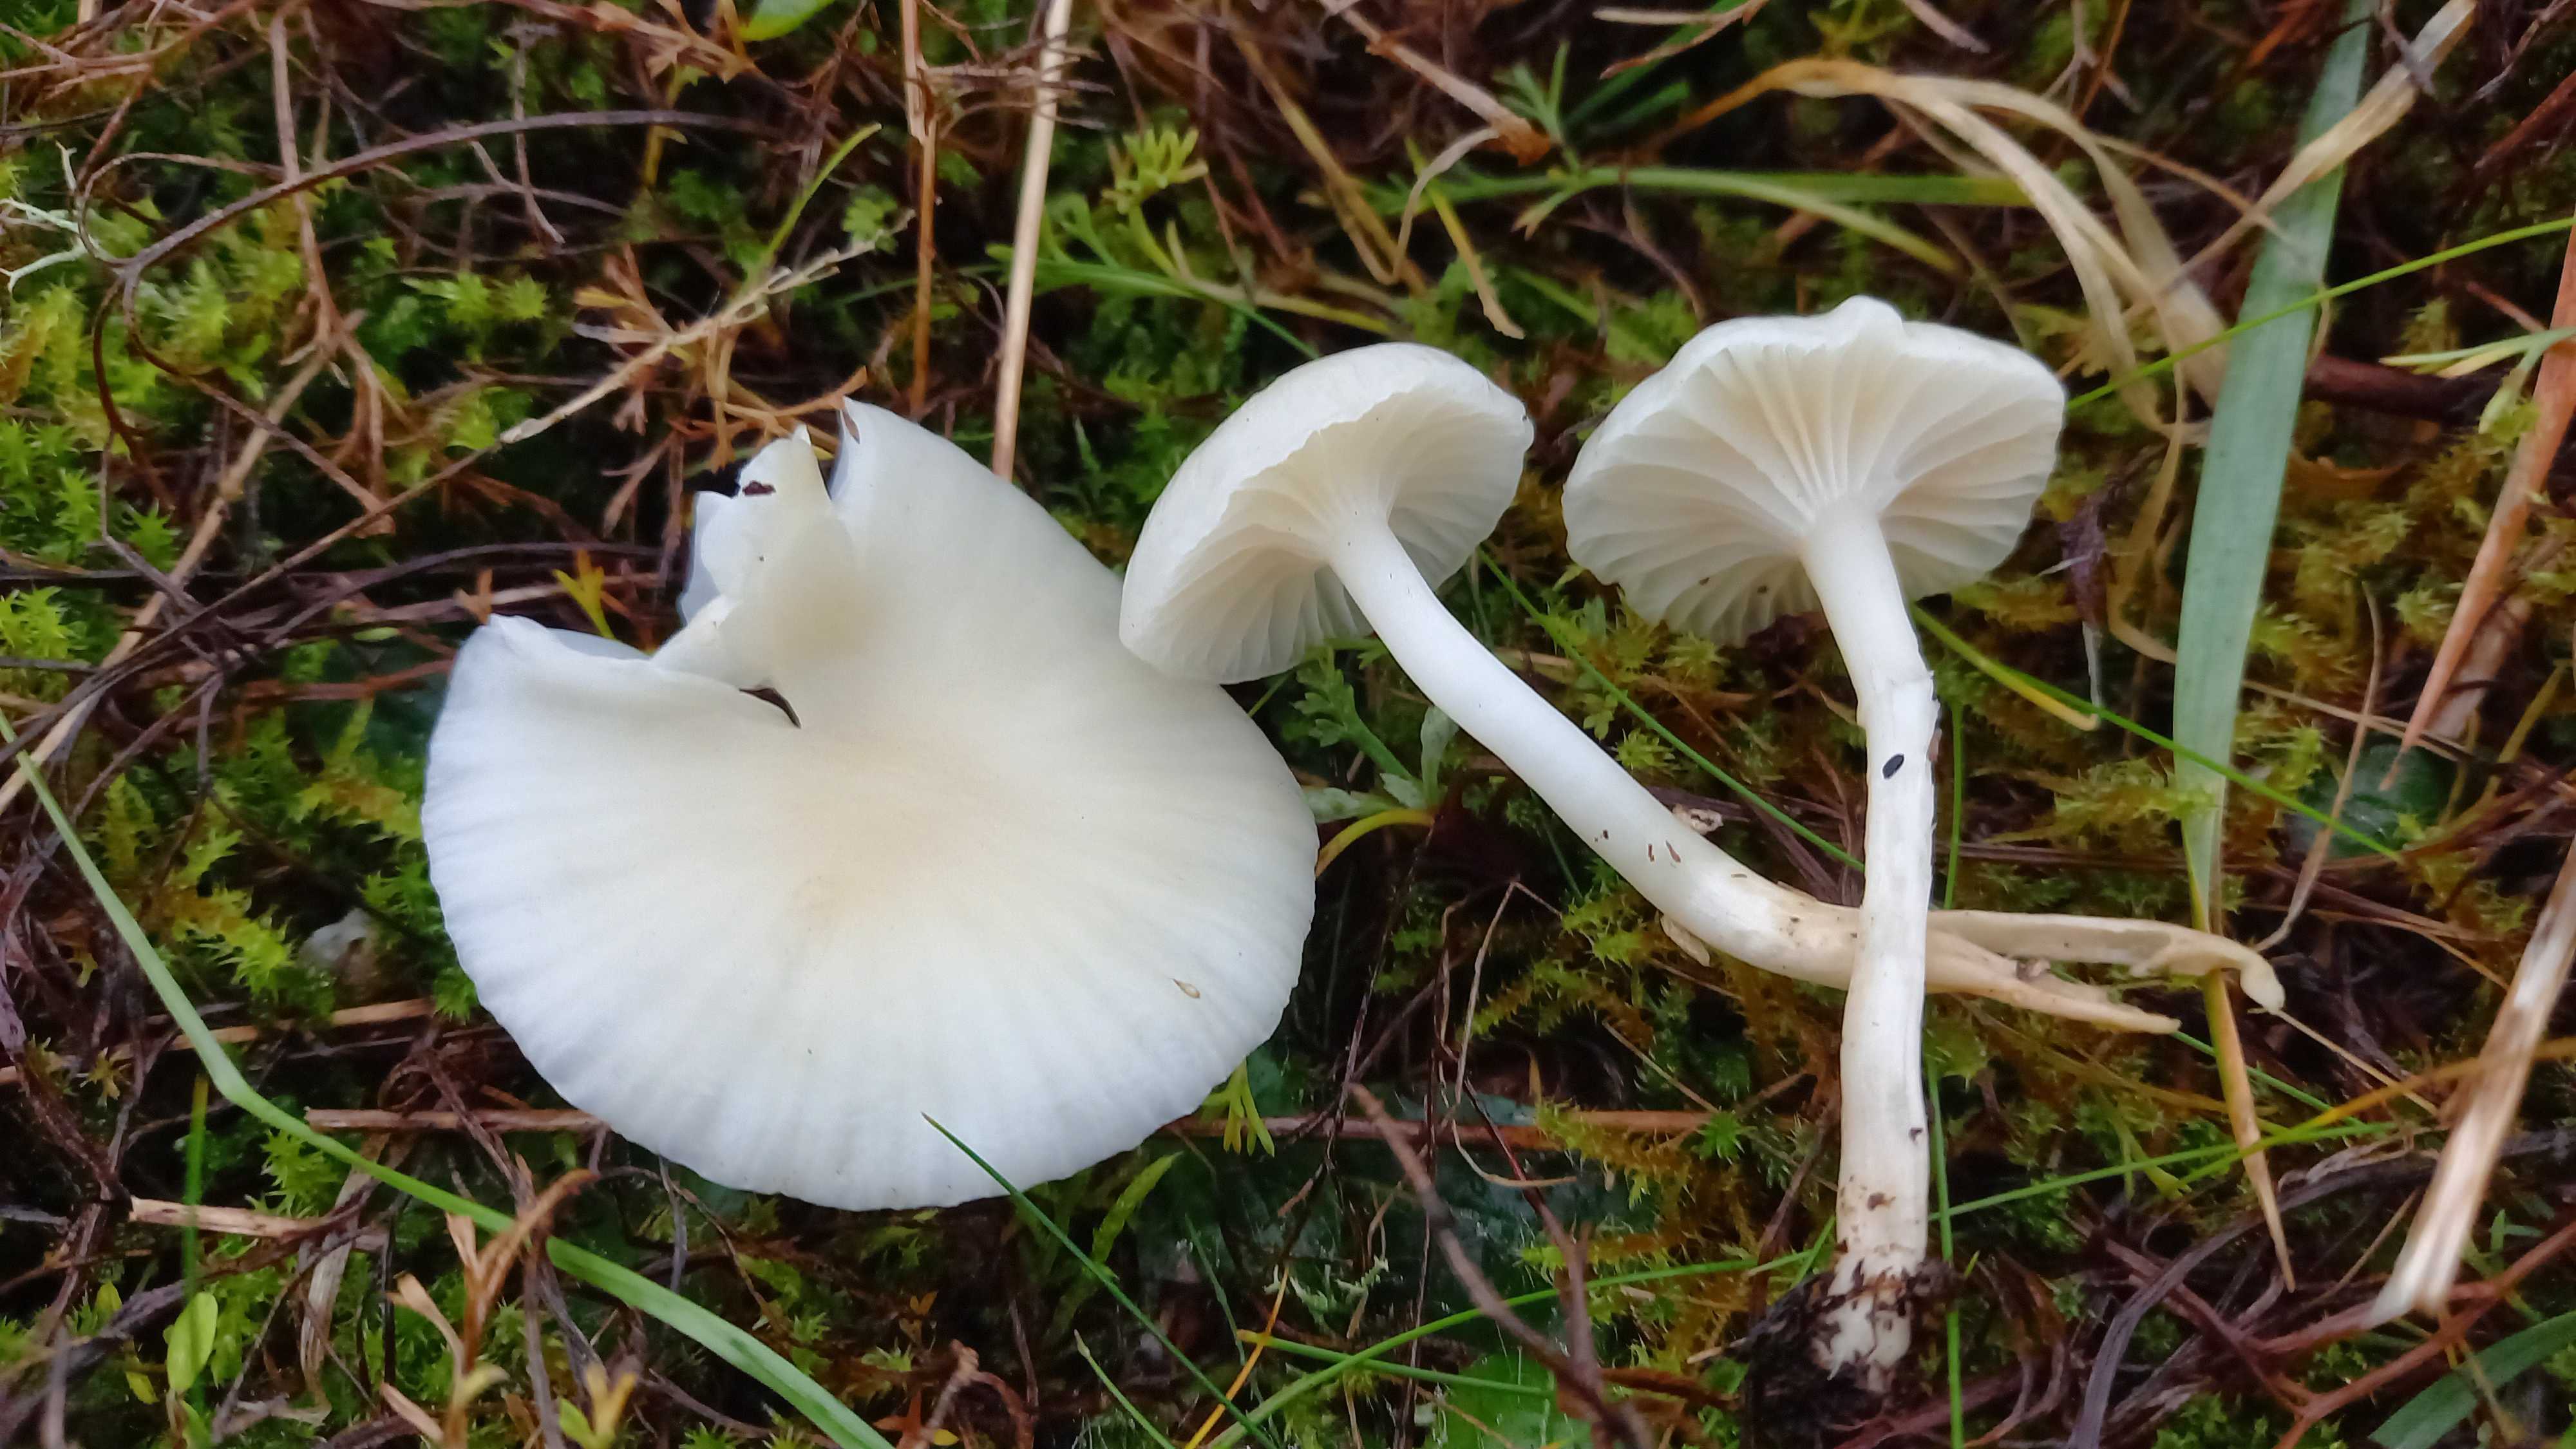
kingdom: Fungi
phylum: Basidiomycota
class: Agaricomycetes
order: Agaricales
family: Hygrophoraceae
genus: Cuphophyllus
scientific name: Cuphophyllus virgineus
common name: snehvid vokshat
